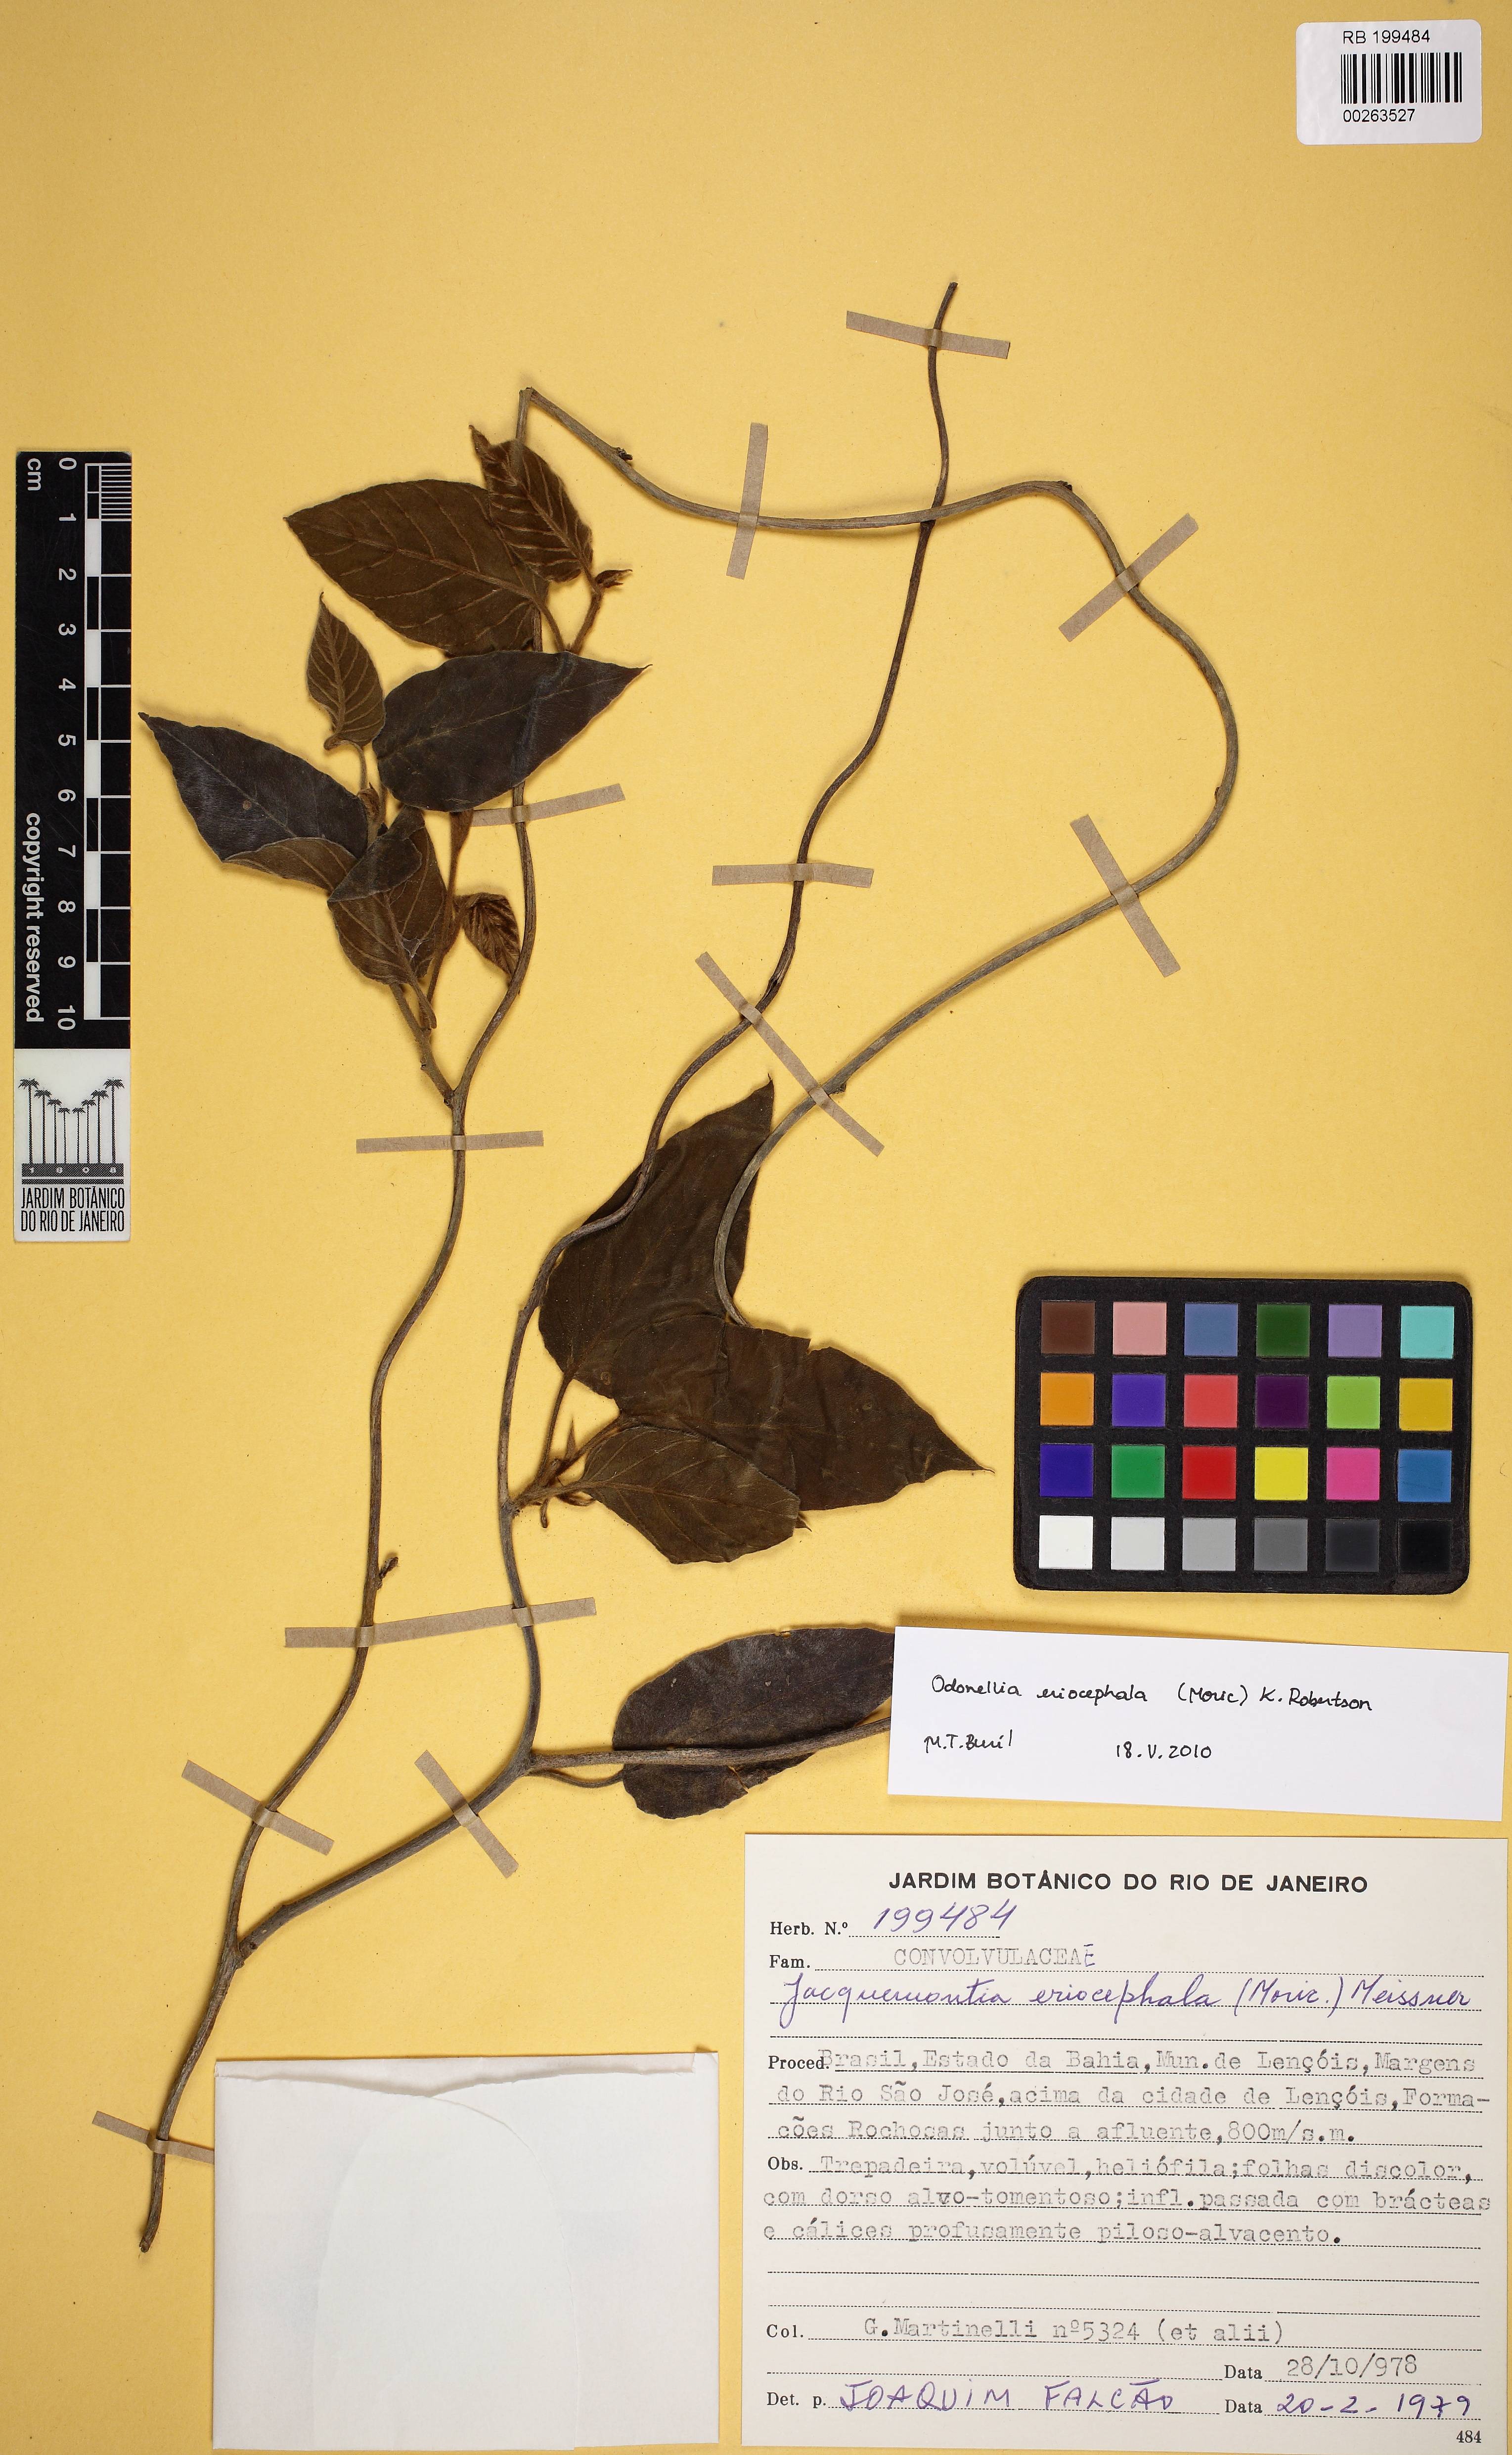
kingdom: Plantae
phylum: Tracheophyta
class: Magnoliopsida
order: Solanales
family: Convolvulaceae
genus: Odonellia
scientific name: Odonellia eriocephala
